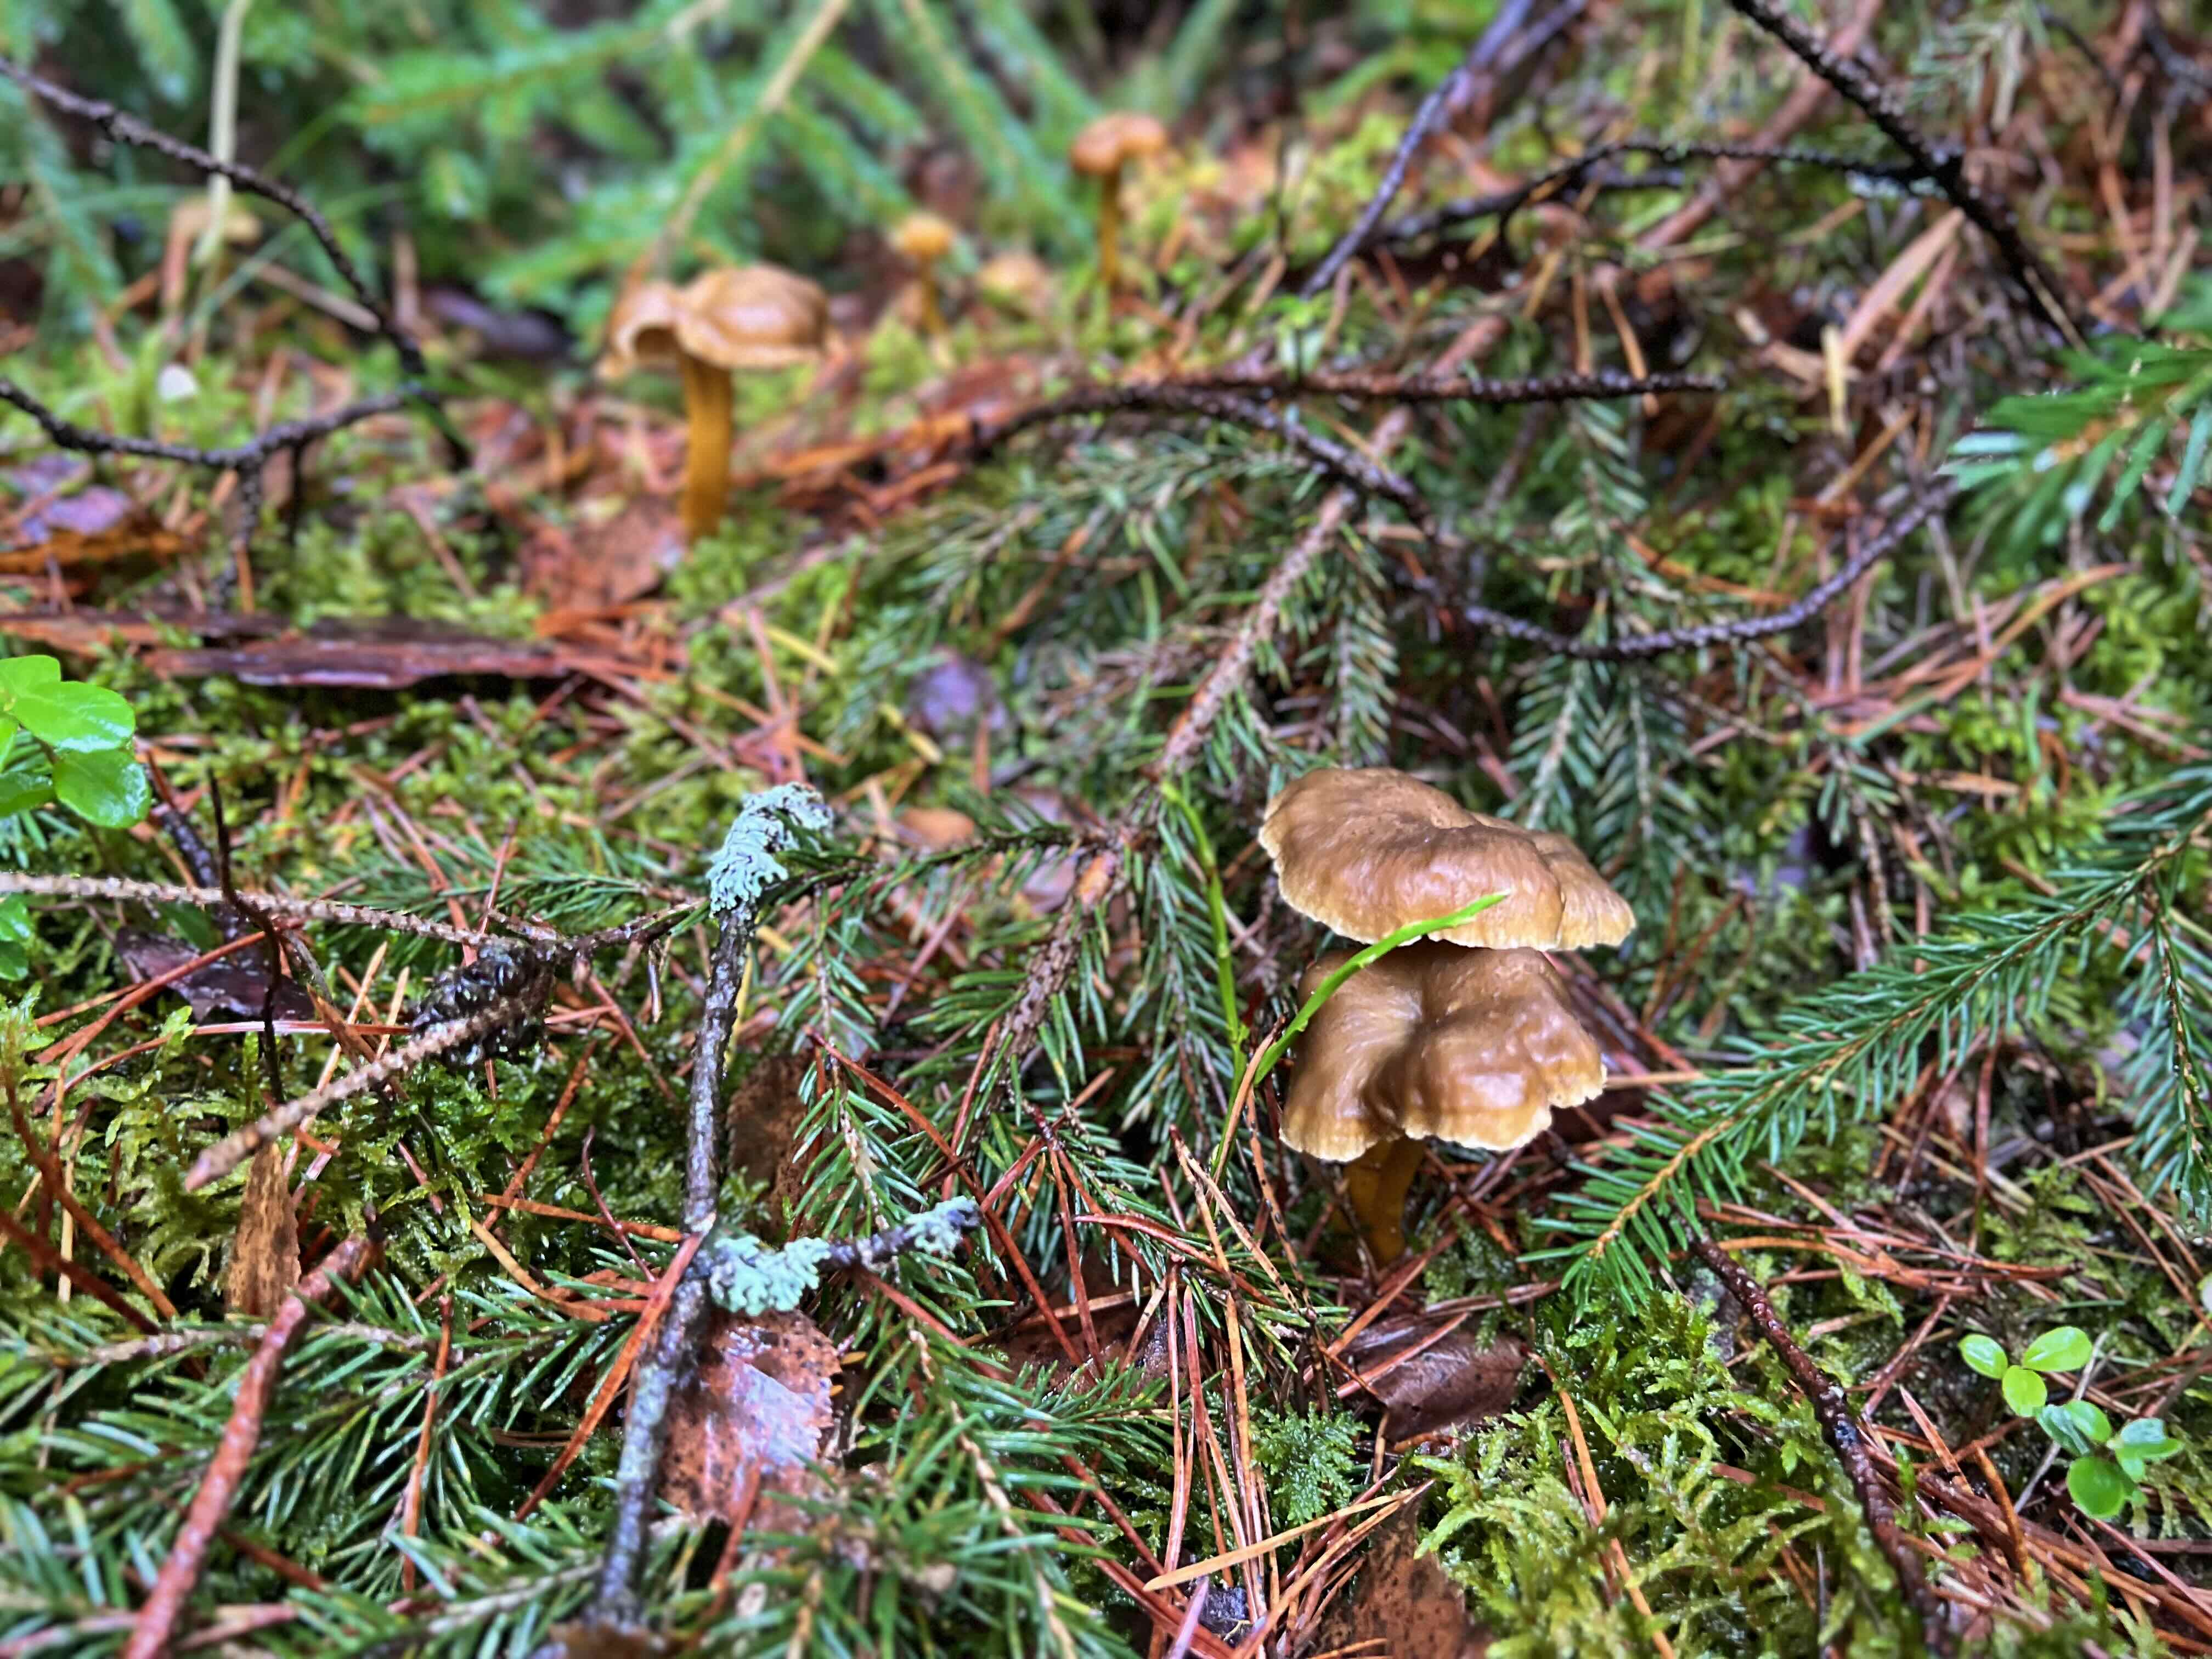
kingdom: Fungi
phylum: Basidiomycota
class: Agaricomycetes
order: Cantharellales
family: Hydnaceae
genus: Craterellus
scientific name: Craterellus tubaeformis
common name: tragt-kantarel
